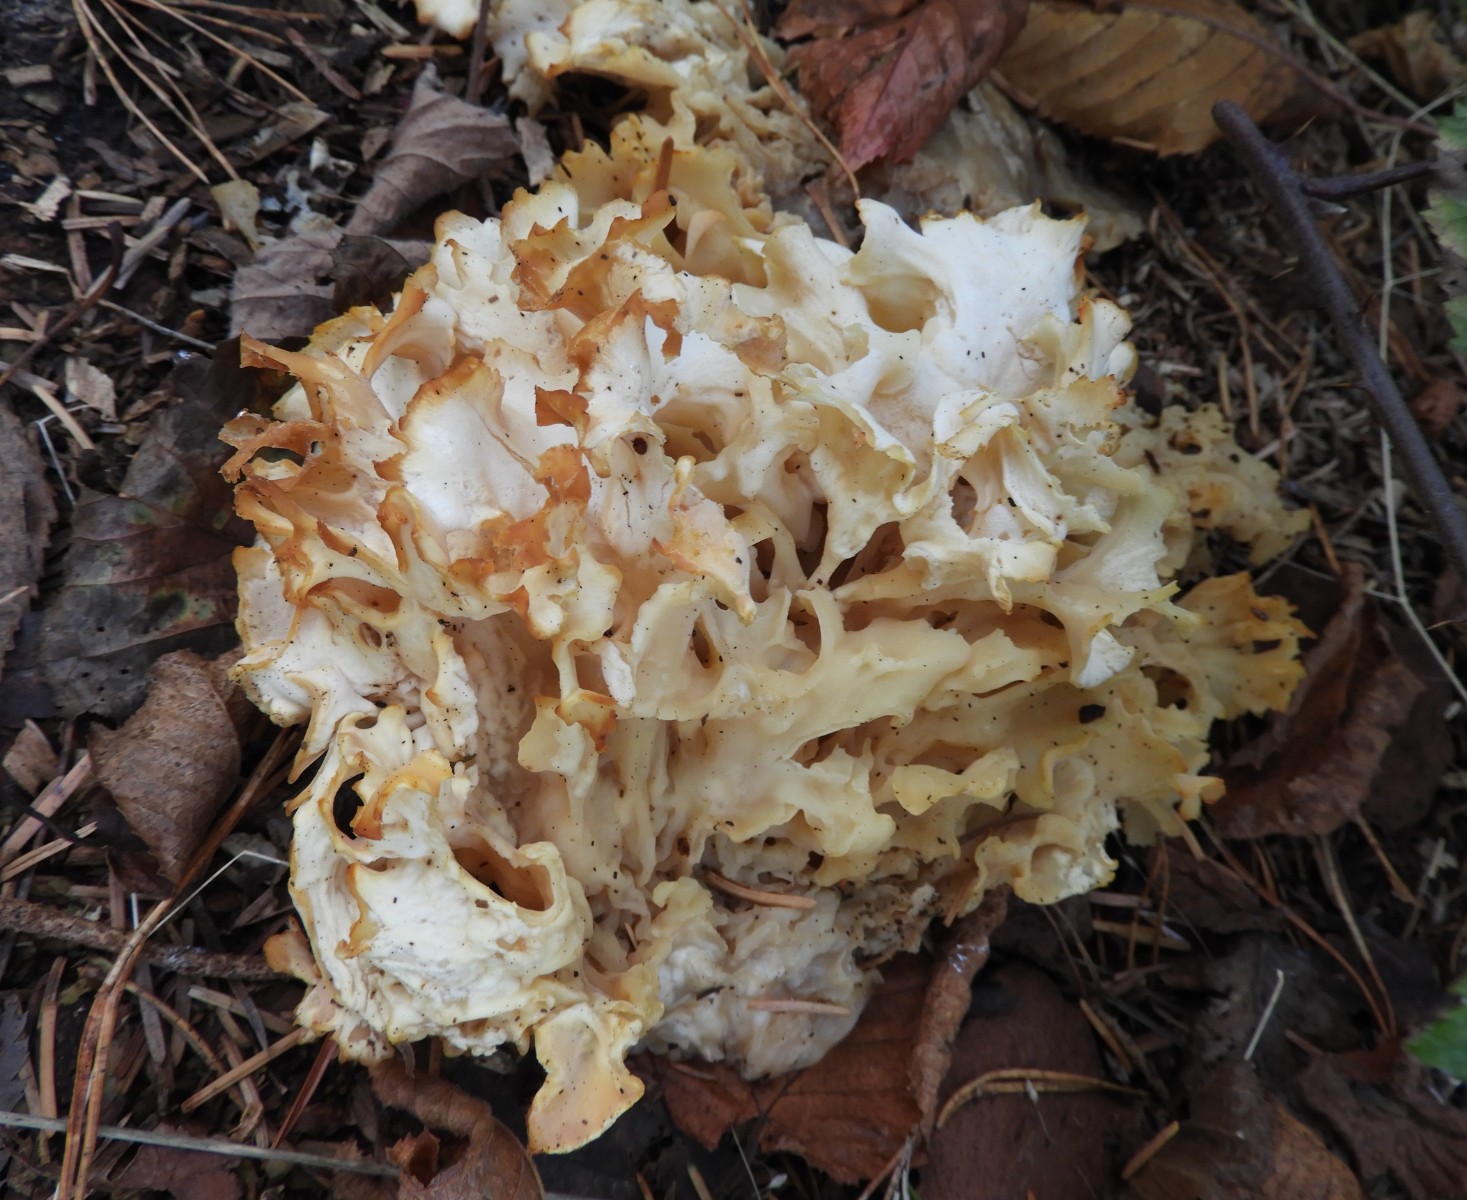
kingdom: Fungi
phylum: Basidiomycota
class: Agaricomycetes
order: Polyporales
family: Sparassidaceae
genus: Sparassis
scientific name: Sparassis crispa
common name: kruset blomkålssvamp
